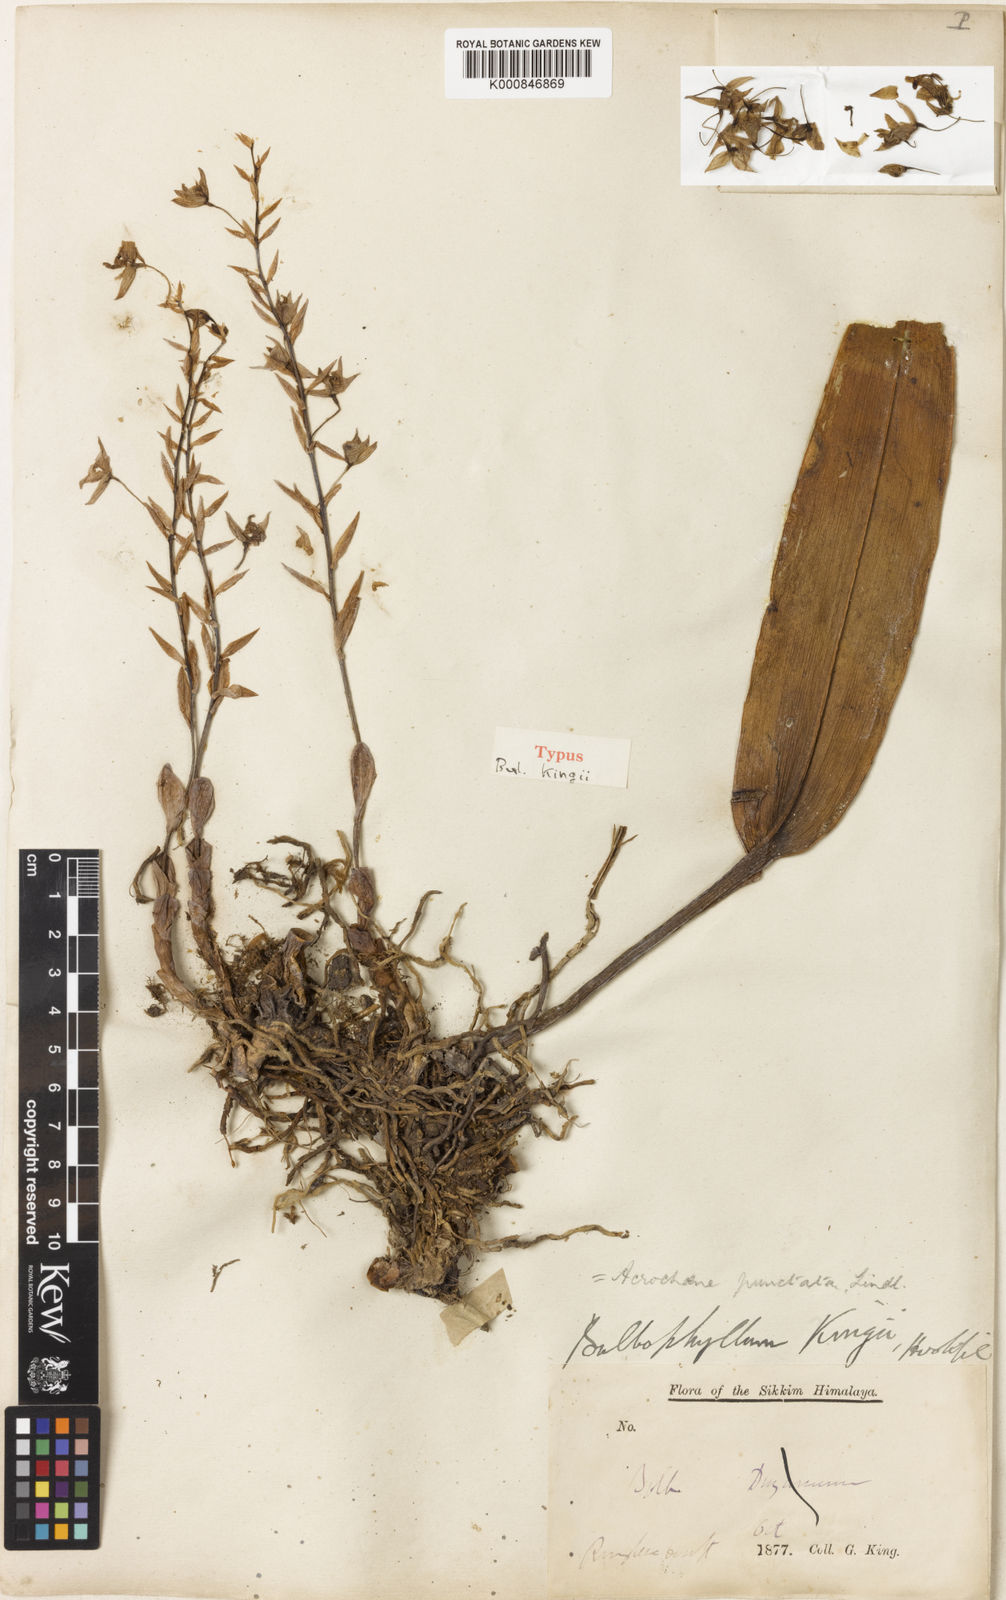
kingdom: Plantae
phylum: Tracheophyta
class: Liliopsida
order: Asparagales
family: Orchidaceae
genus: Bulbophyllum
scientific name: Bulbophyllum kingii
